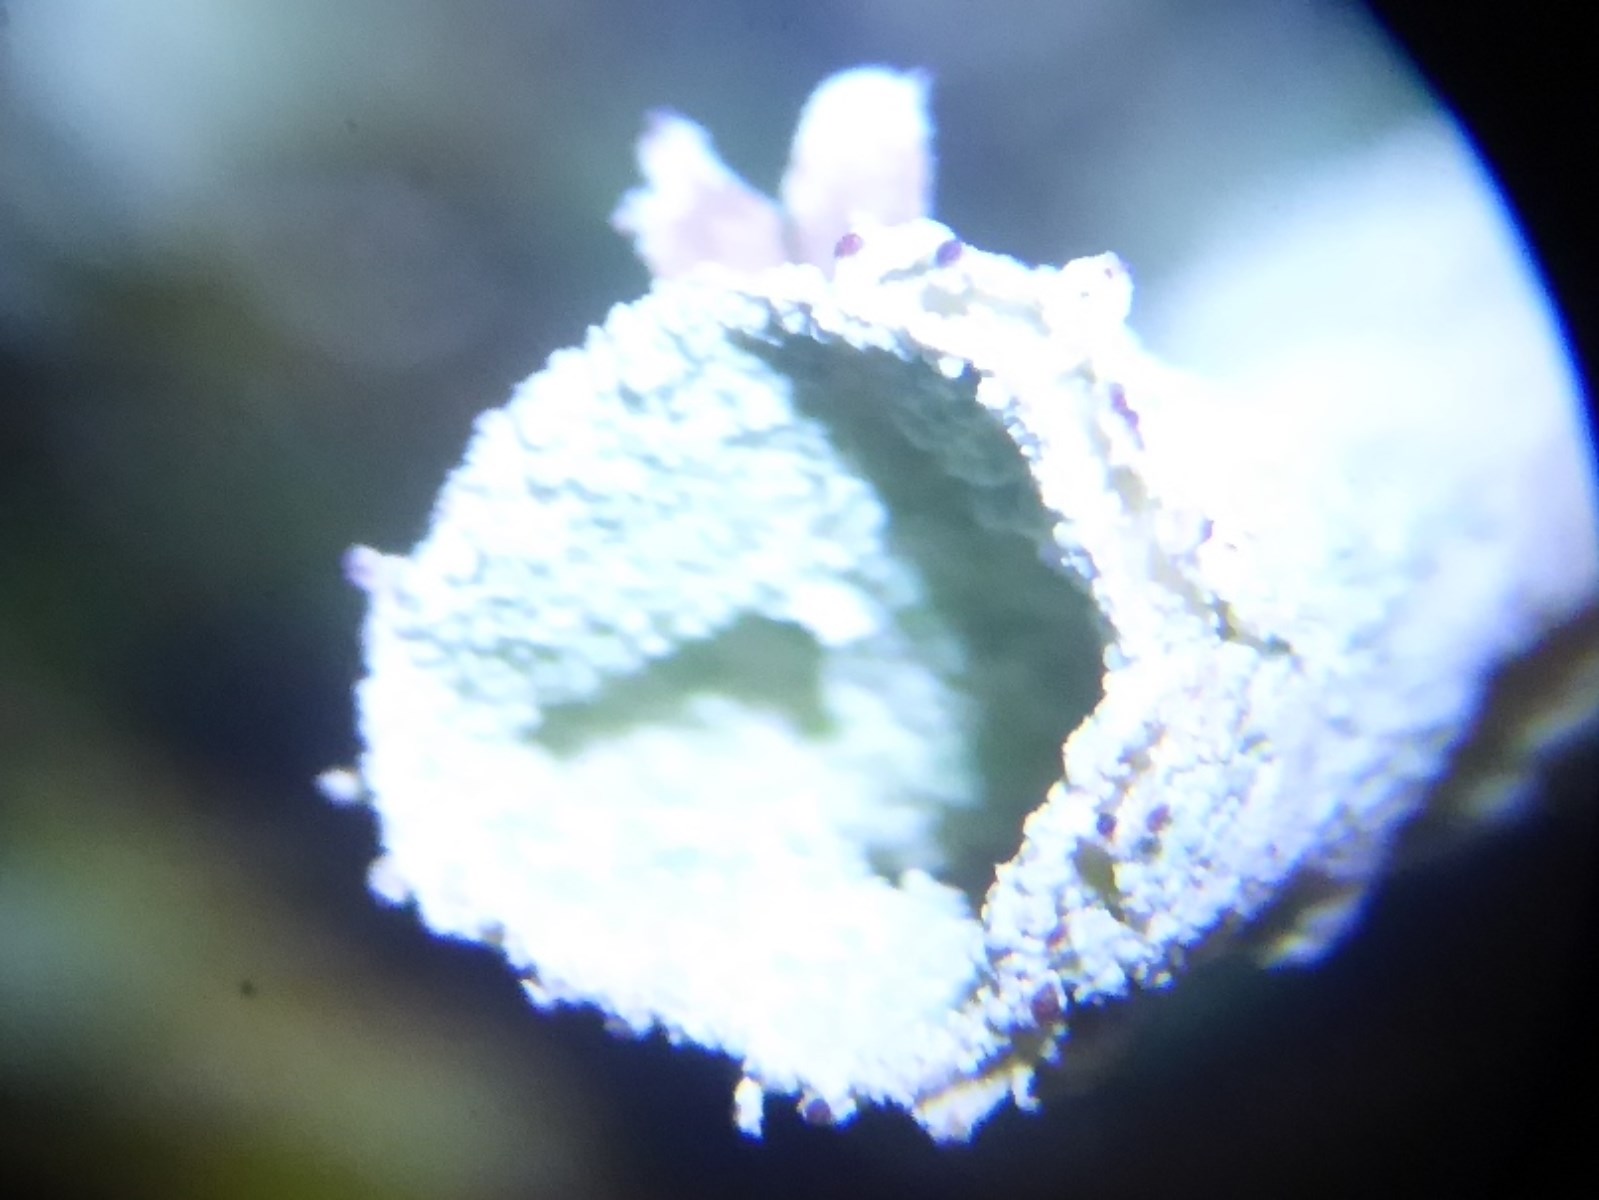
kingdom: Fungi
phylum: Ascomycota
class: Lecanoromycetes
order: Lecanorales
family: Cladoniaceae
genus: Cladonia
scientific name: Cladonia deformis
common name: kreneleret bægerlav
